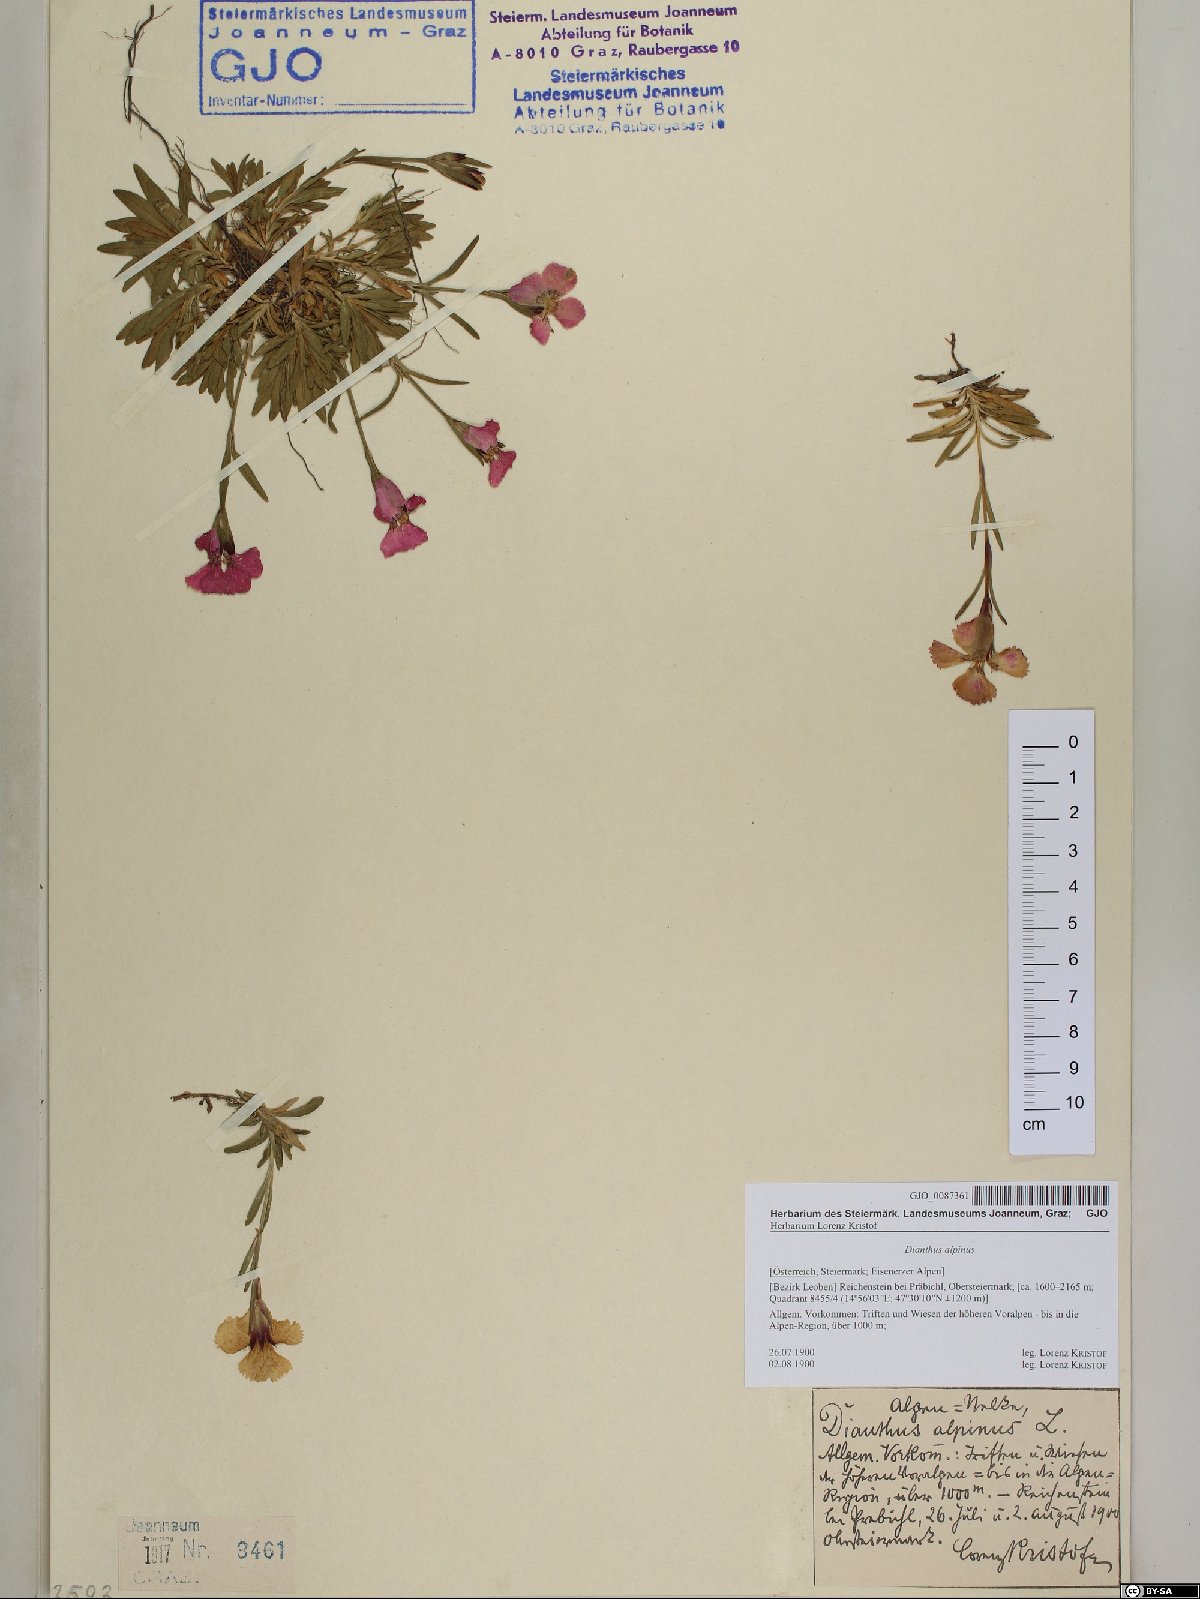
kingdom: Plantae
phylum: Tracheophyta
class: Magnoliopsida
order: Caryophyllales
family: Caryophyllaceae
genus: Dianthus
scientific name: Dianthus alpinus
